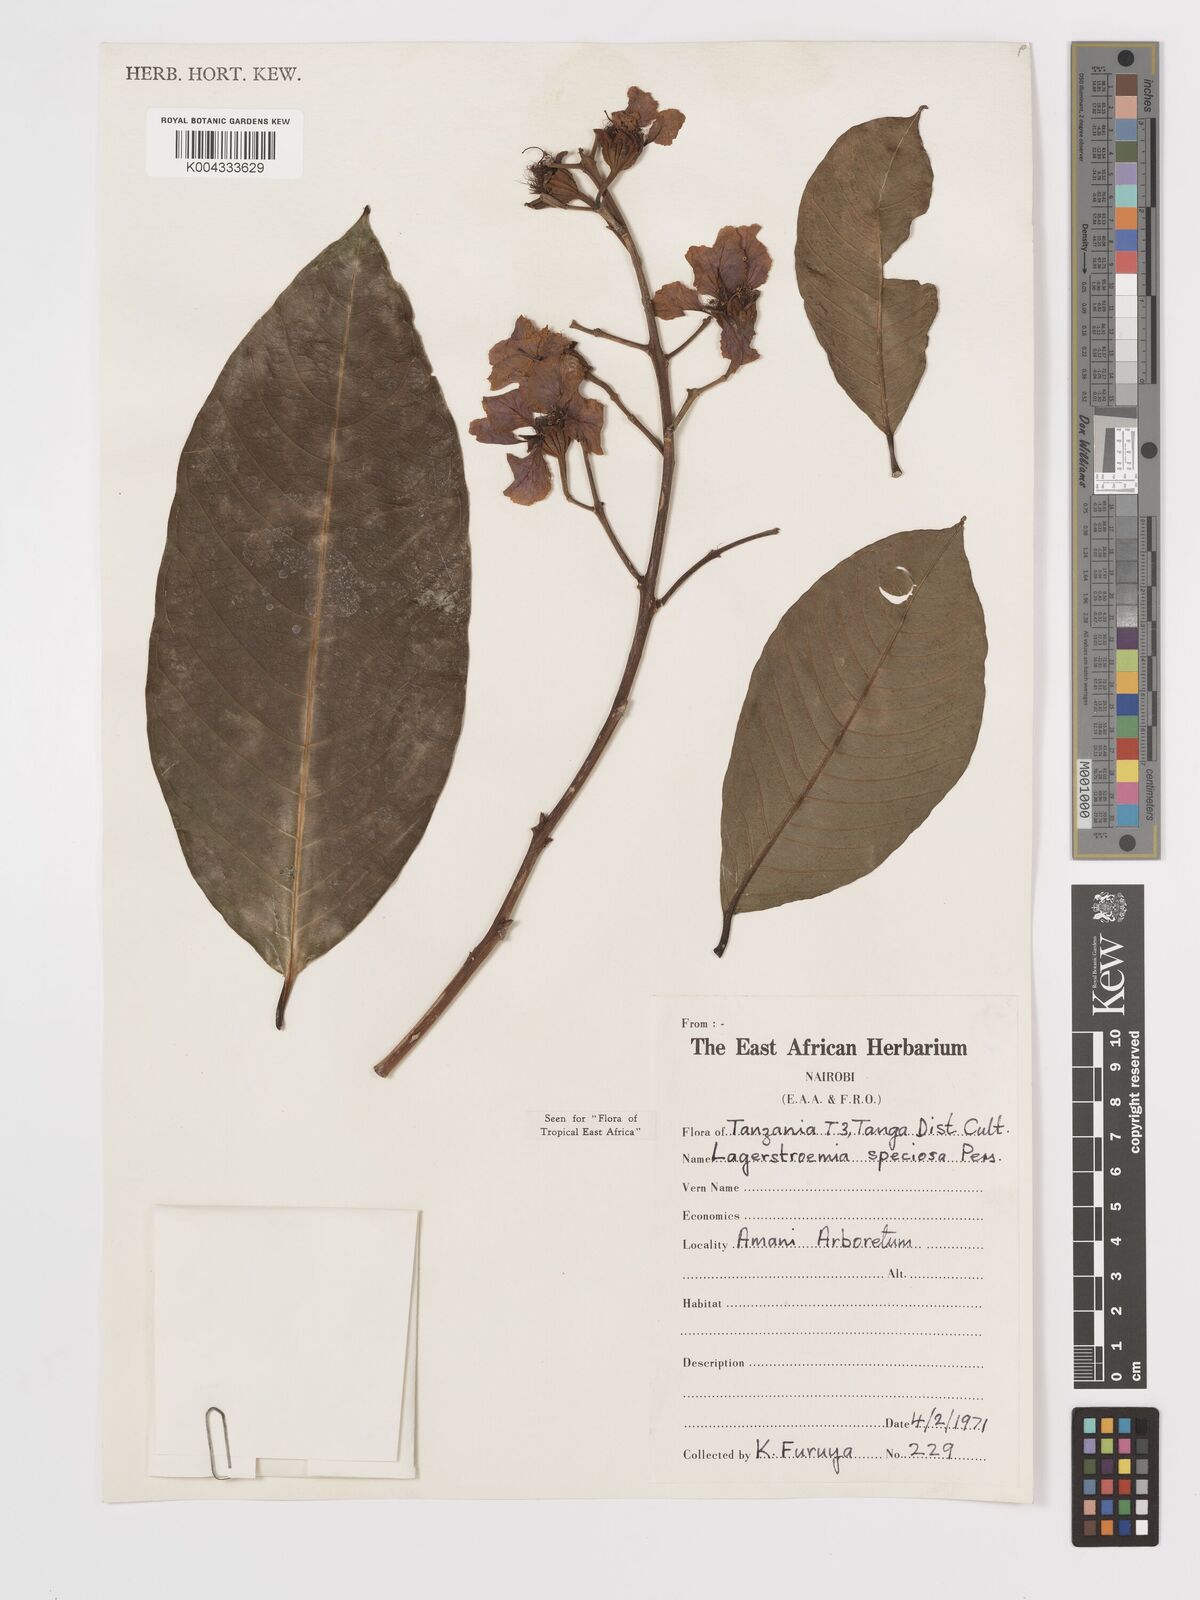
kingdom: Plantae
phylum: Tracheophyta
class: Magnoliopsida
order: Myrtales
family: Lythraceae
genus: Lagerstroemia
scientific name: Lagerstroemia speciosa
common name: Queen's crape-myrtle
